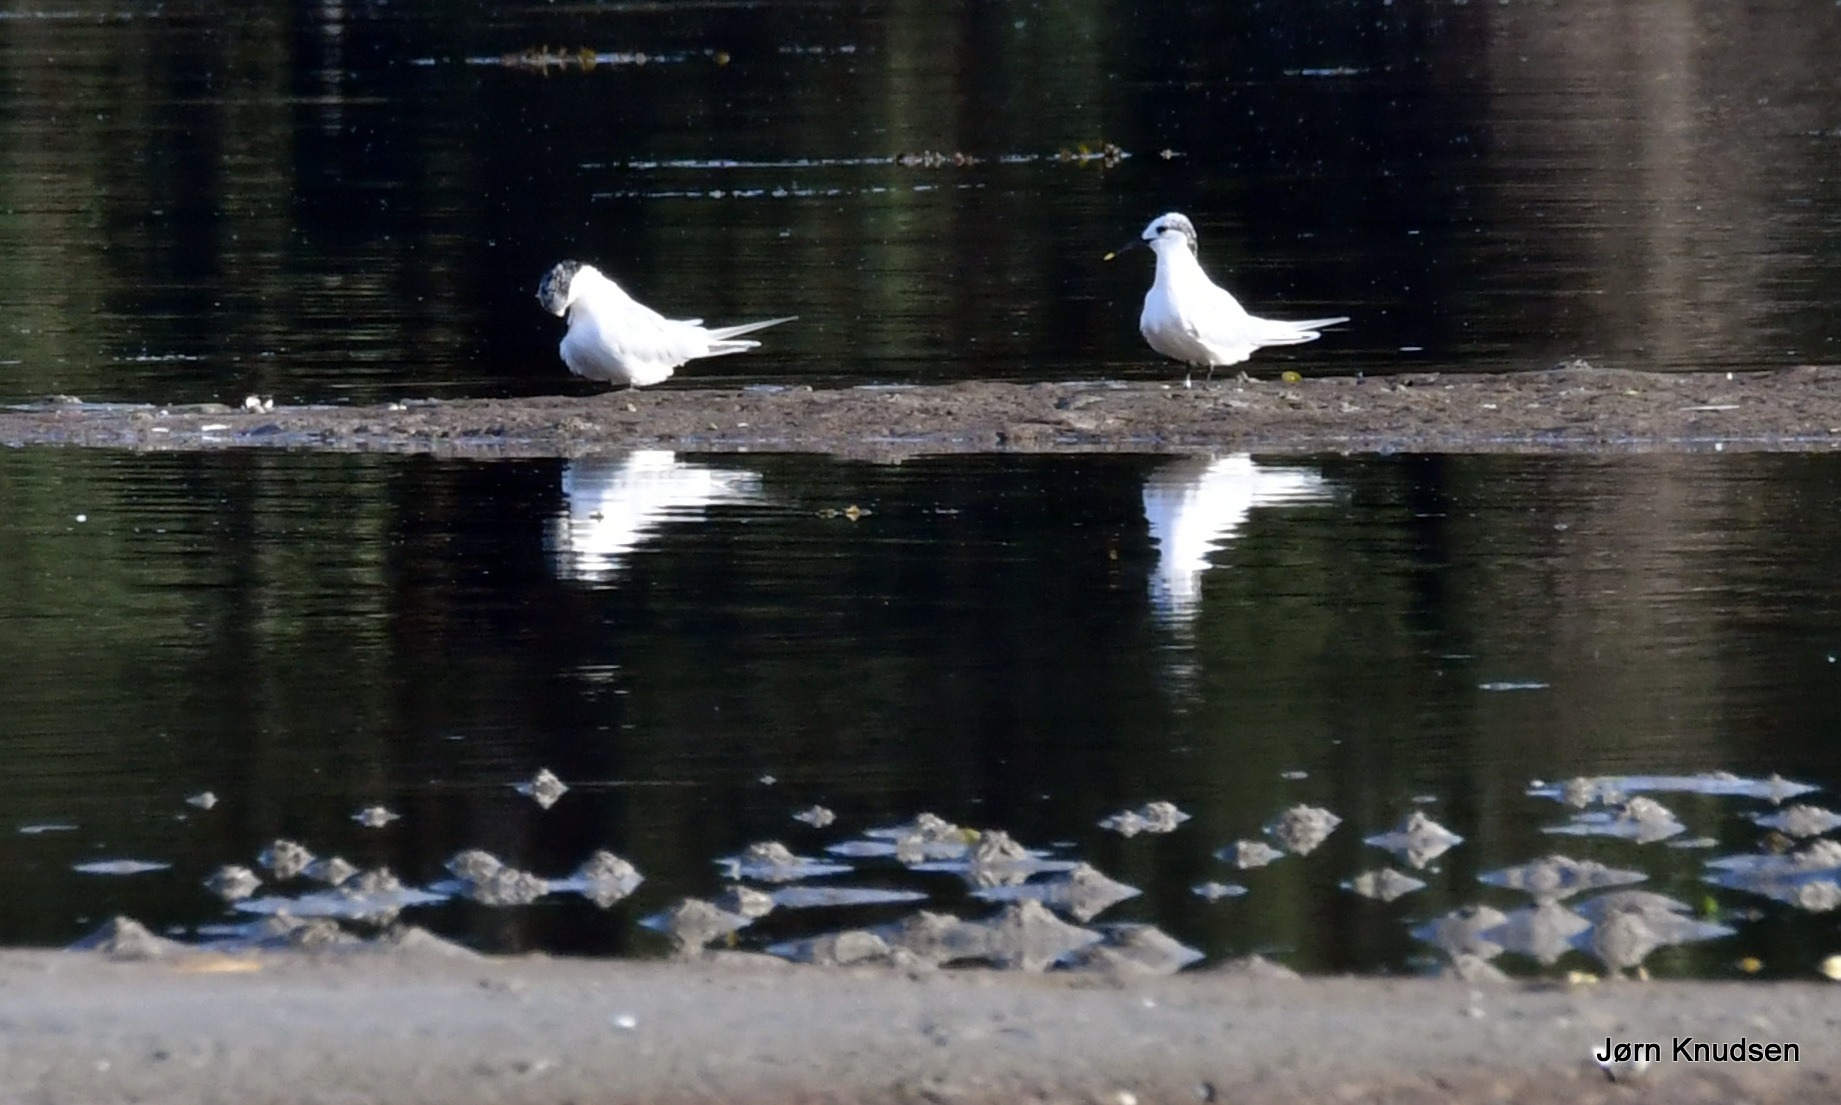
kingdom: Animalia
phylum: Chordata
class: Aves
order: Charadriiformes
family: Laridae
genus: Thalasseus
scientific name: Thalasseus sandvicensis
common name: Splitterne
